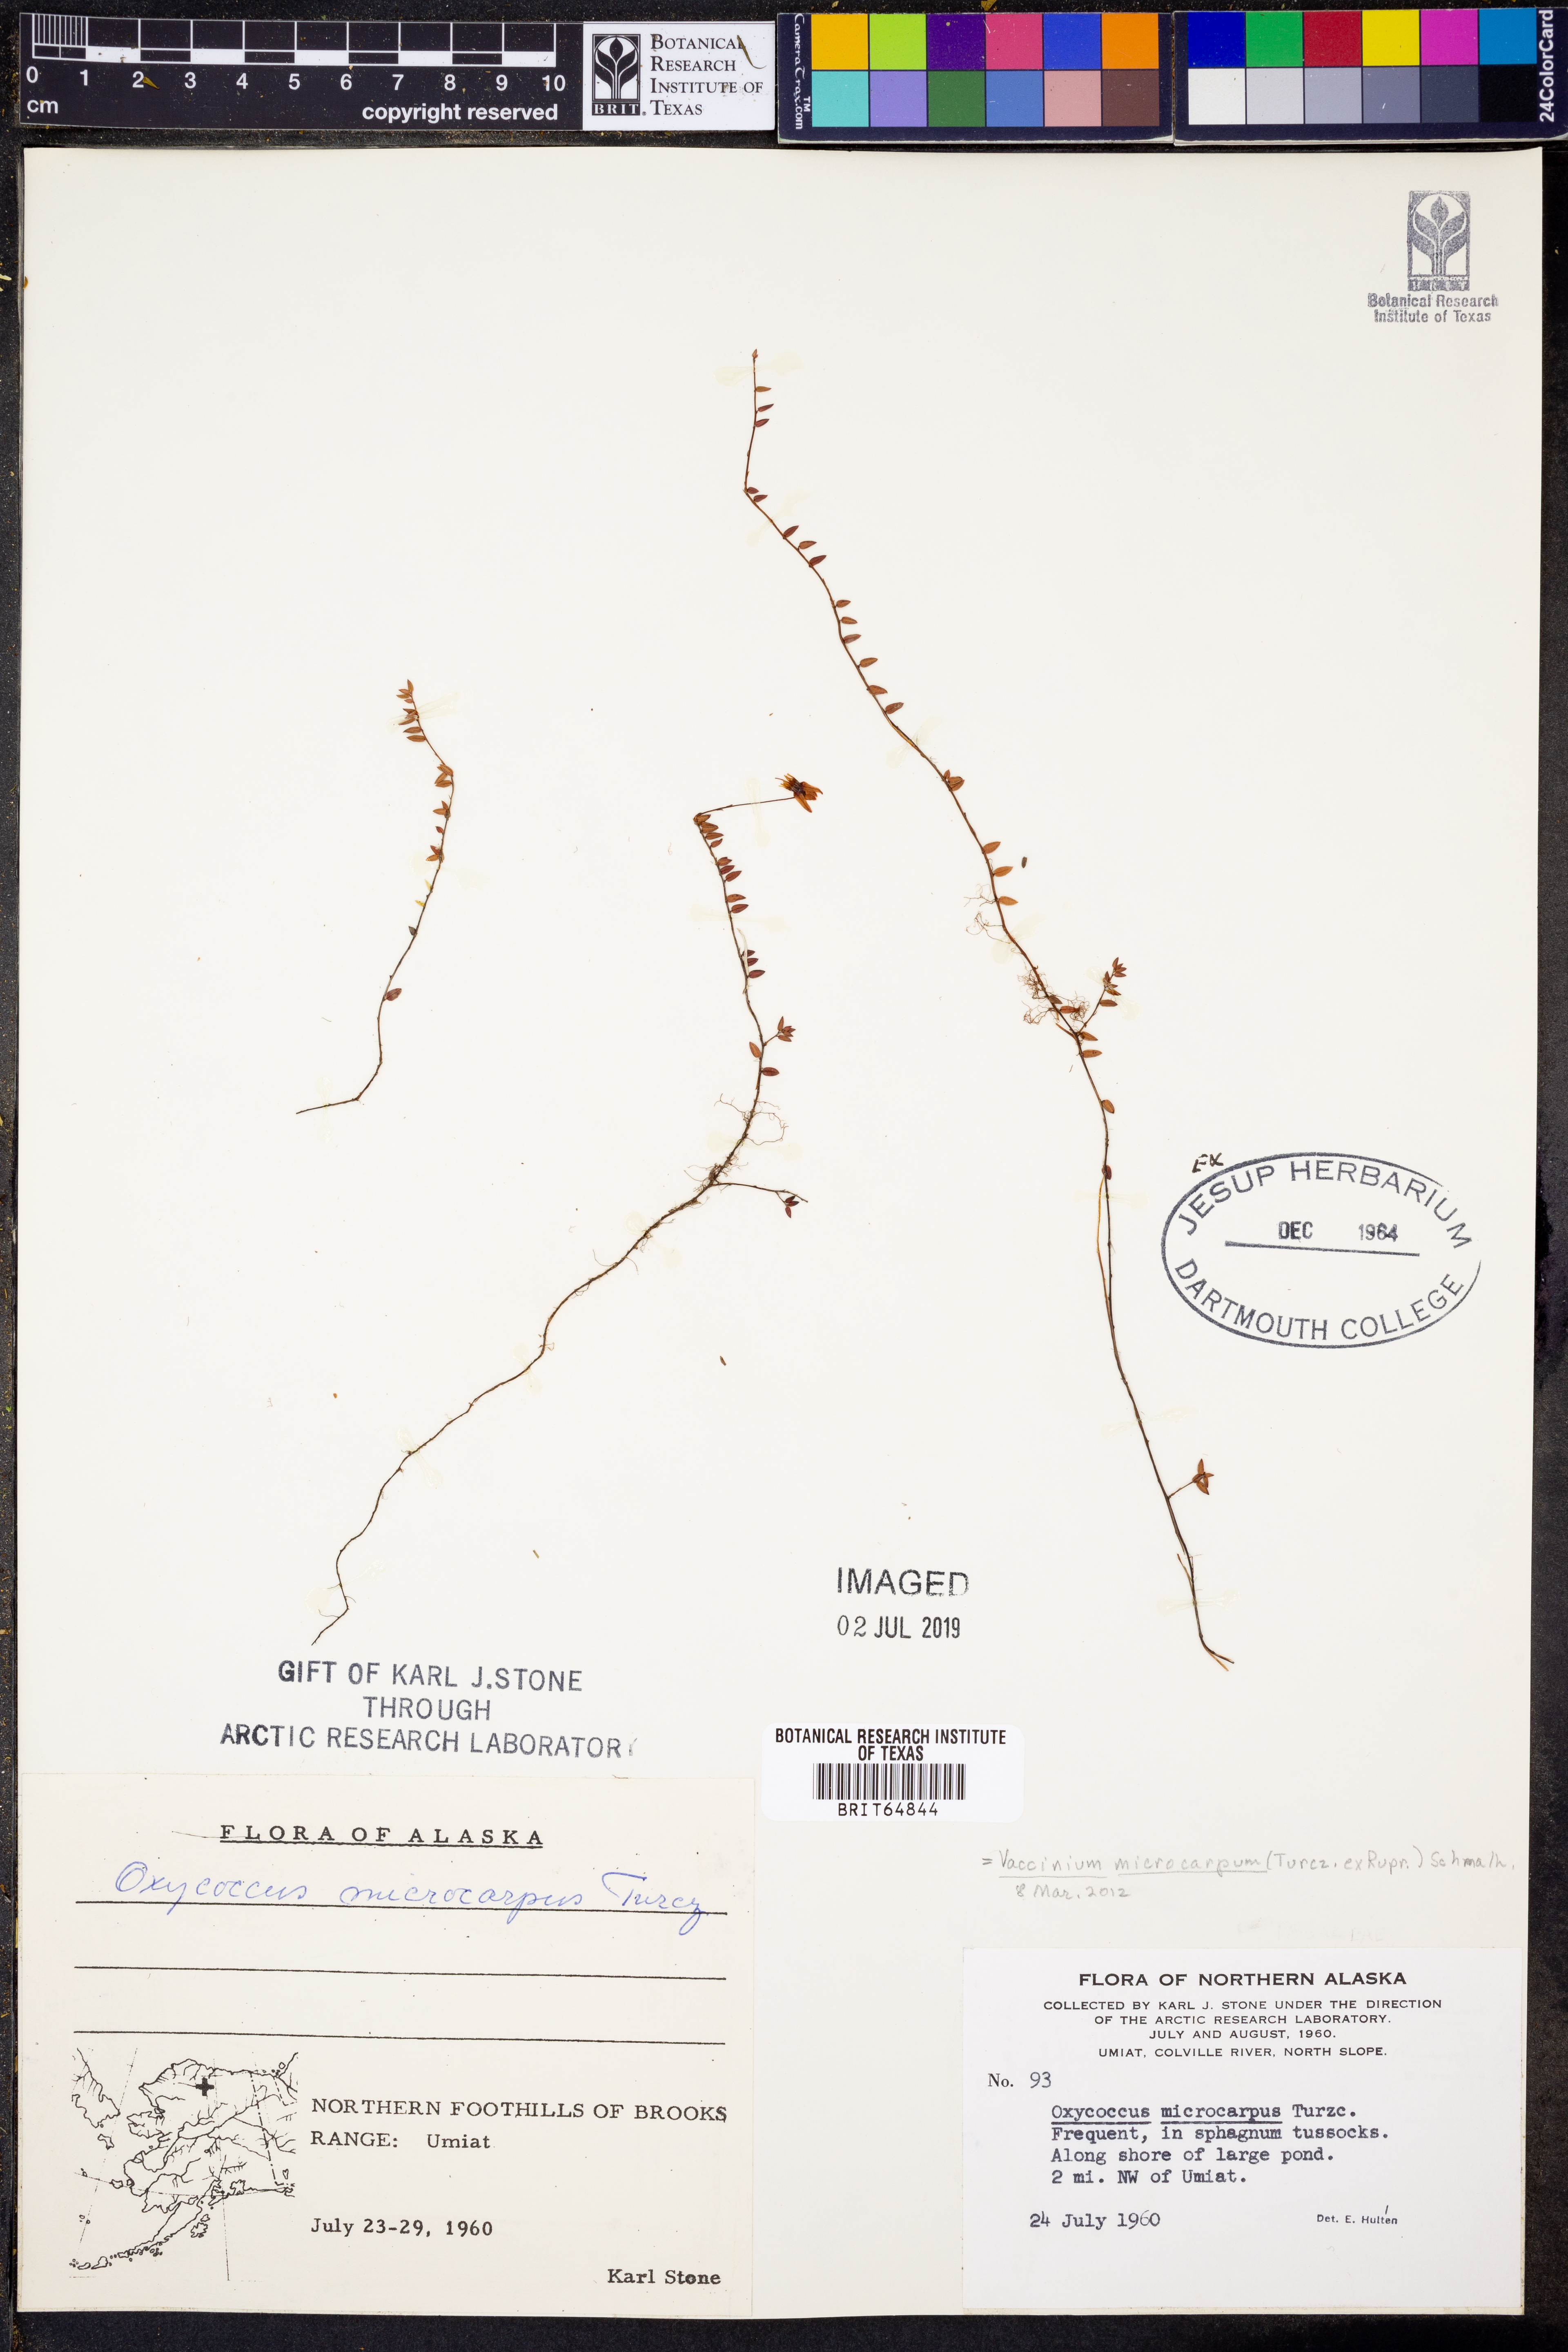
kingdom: Plantae
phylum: Tracheophyta
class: Magnoliopsida
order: Ericales
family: Ericaceae
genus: Vaccinium
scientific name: Vaccinium microcarpum
